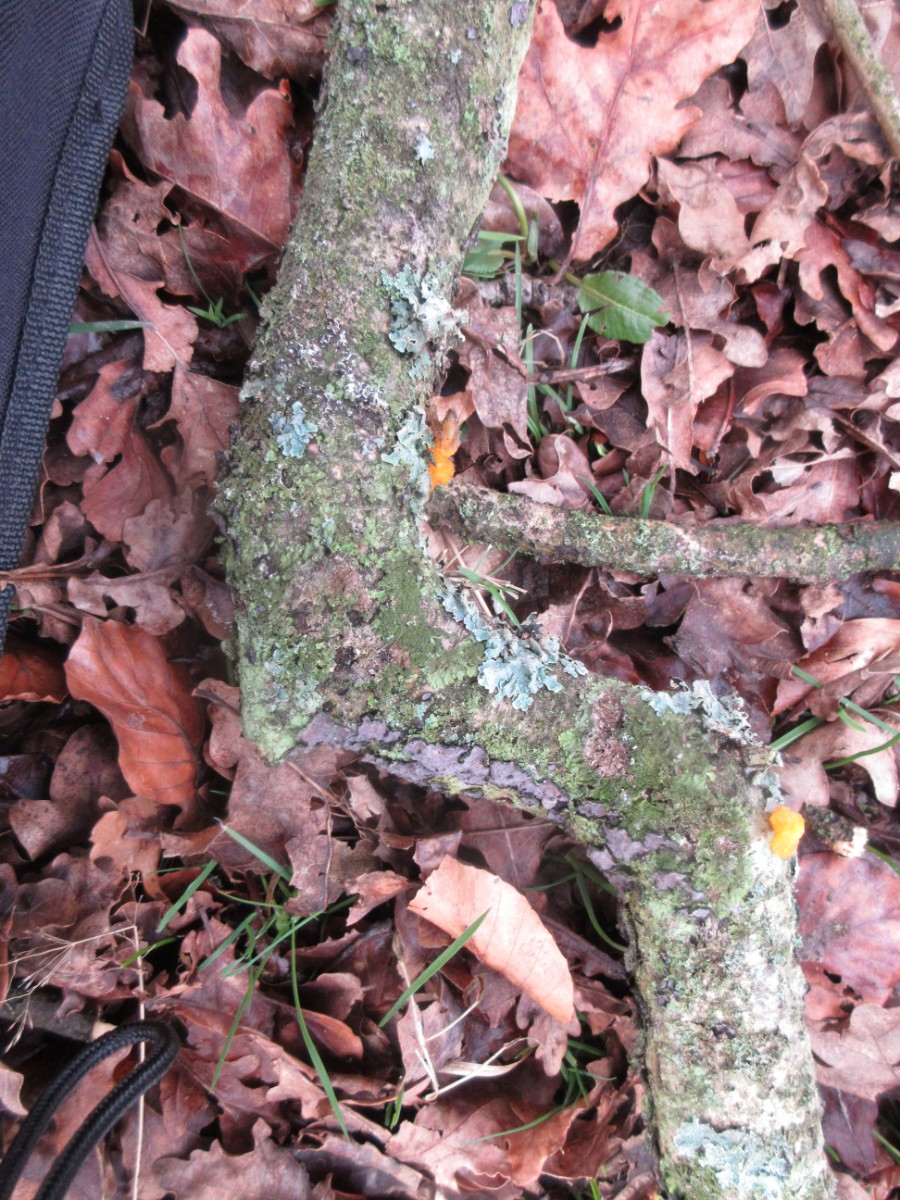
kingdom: Fungi
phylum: Basidiomycota
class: Tremellomycetes
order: Tremellales
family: Tremellaceae
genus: Tremella
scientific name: Tremella mesenterica
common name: gul bævresvamp
